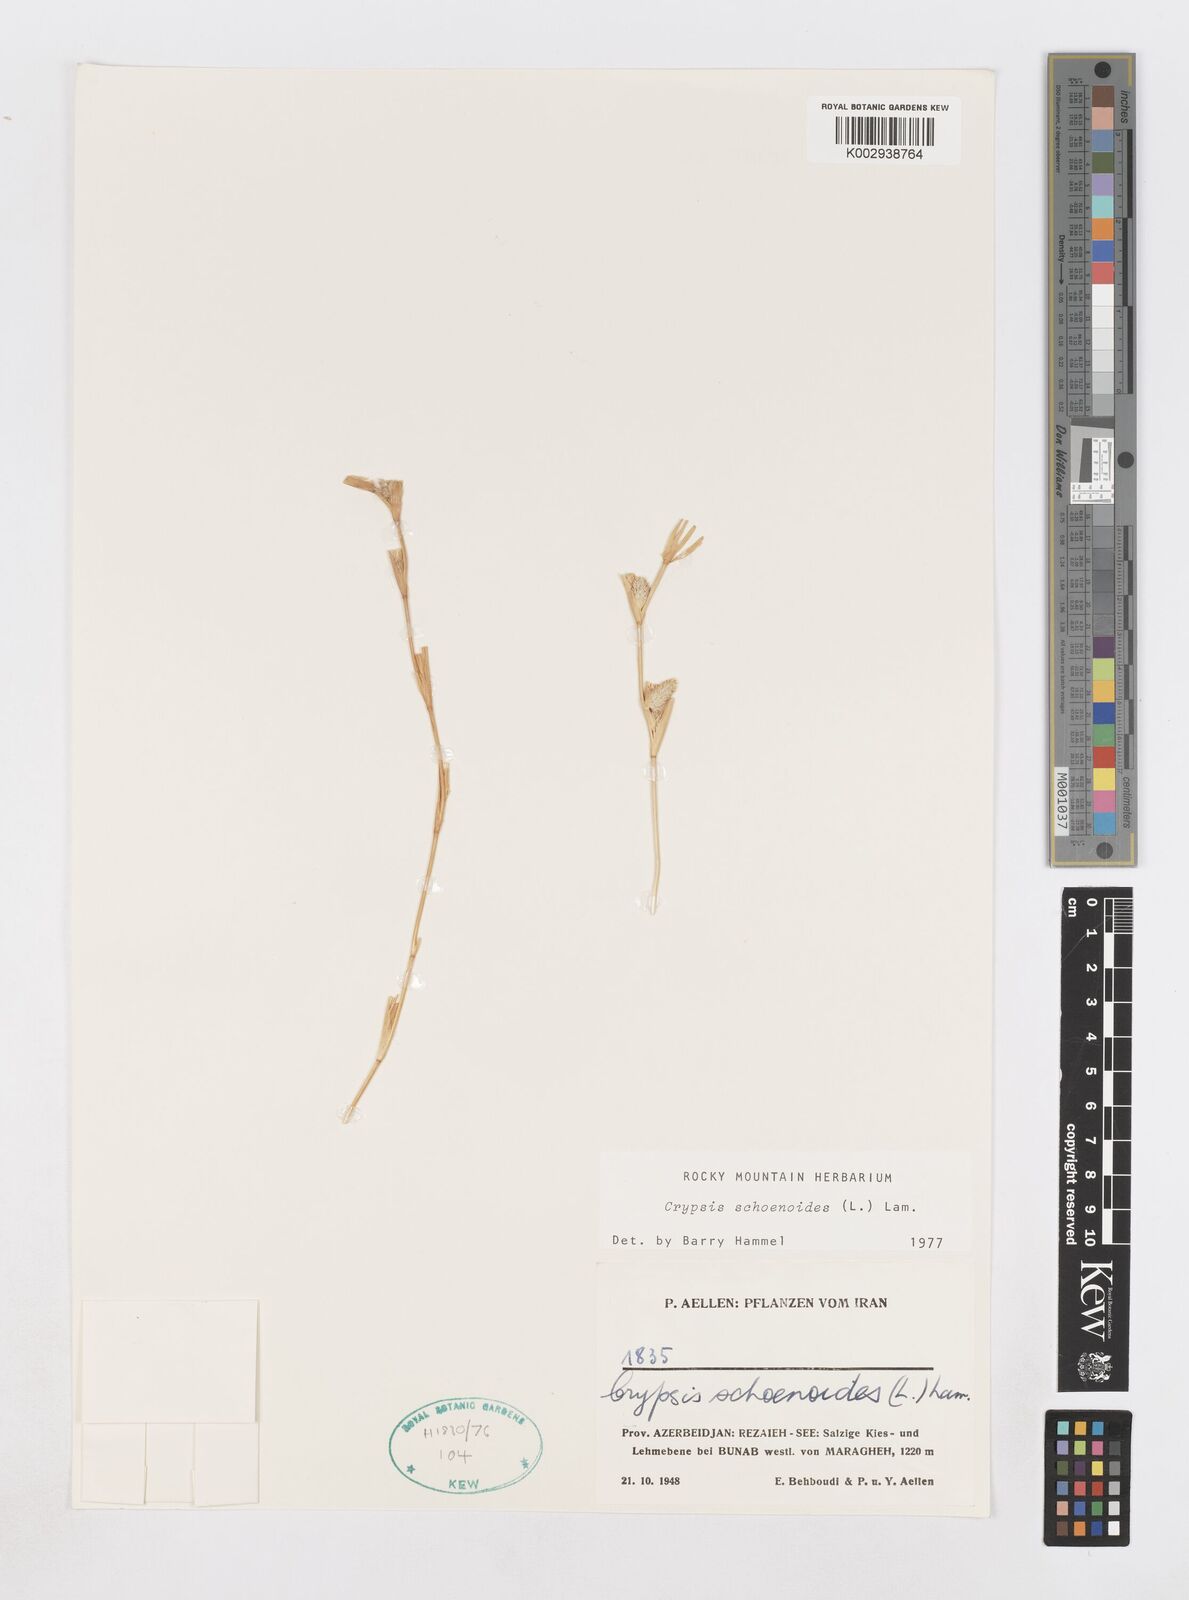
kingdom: Plantae
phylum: Tracheophyta
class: Liliopsida
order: Poales
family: Poaceae
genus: Sporobolus
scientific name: Sporobolus schoenoides
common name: Rush-like timothy
